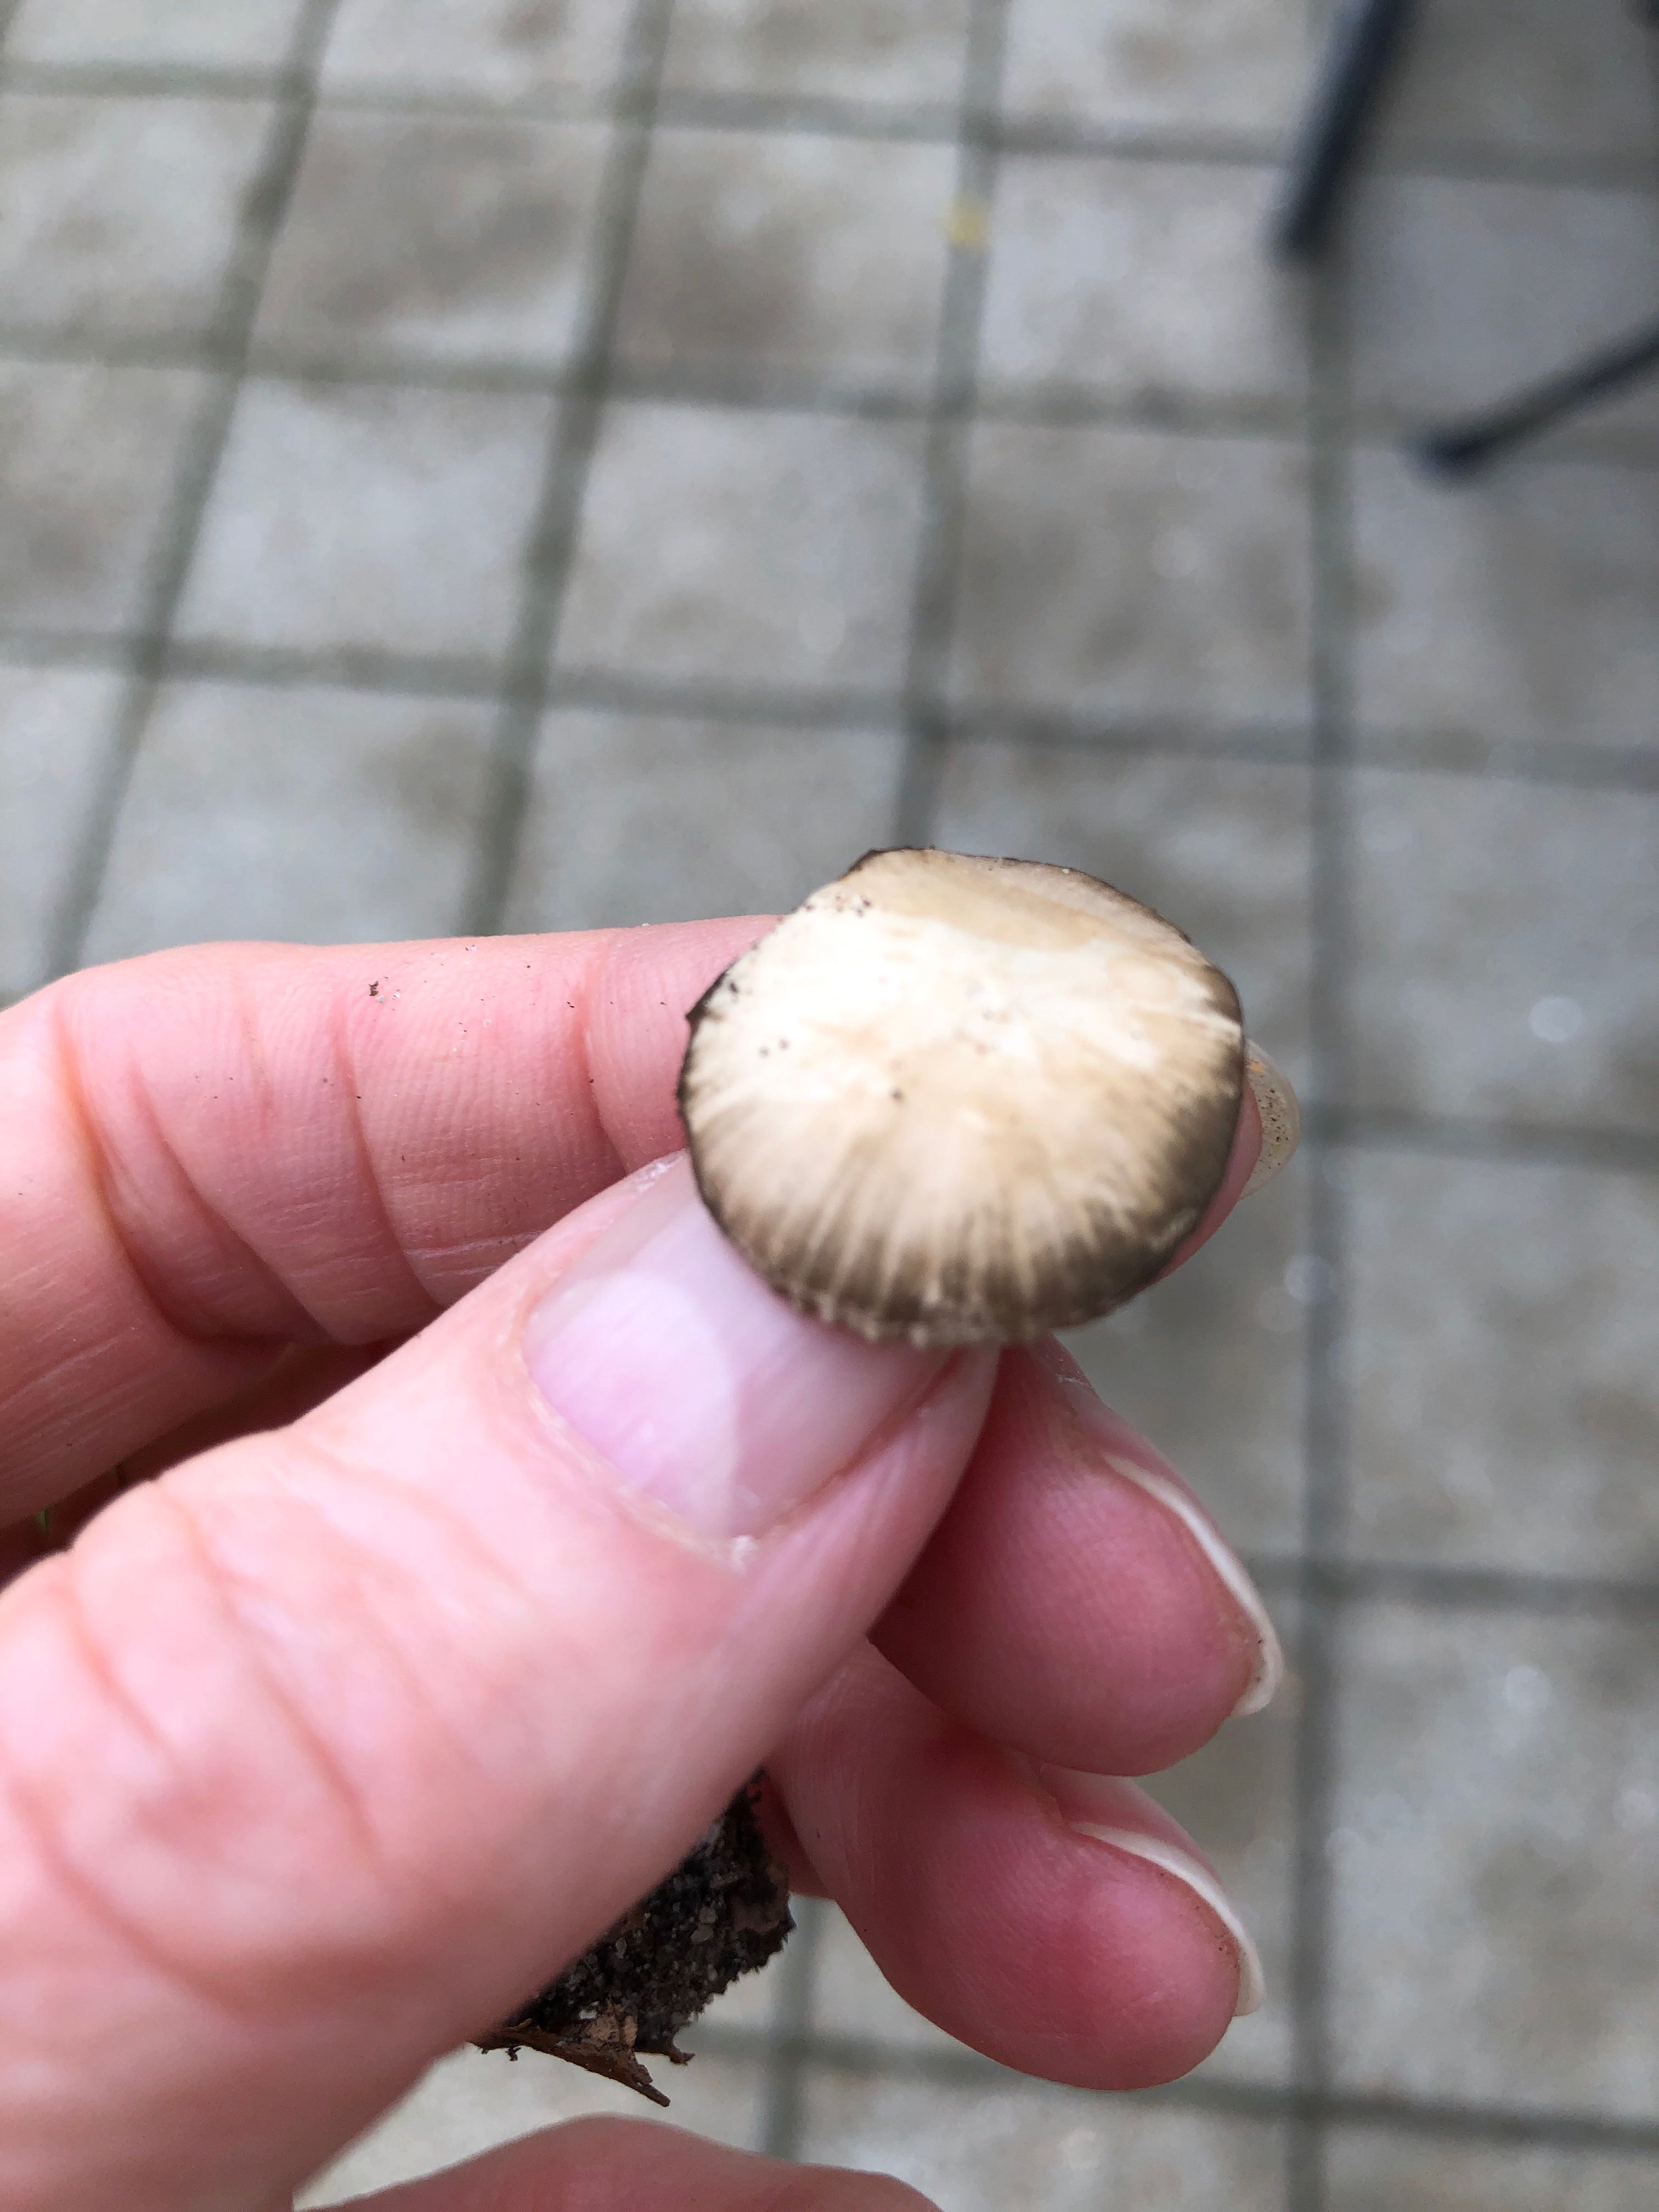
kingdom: Fungi
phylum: Basidiomycota
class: Agaricomycetes
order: Agaricales
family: Psathyrellaceae
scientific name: Psathyrellaceae
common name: mørkhatfamilien
